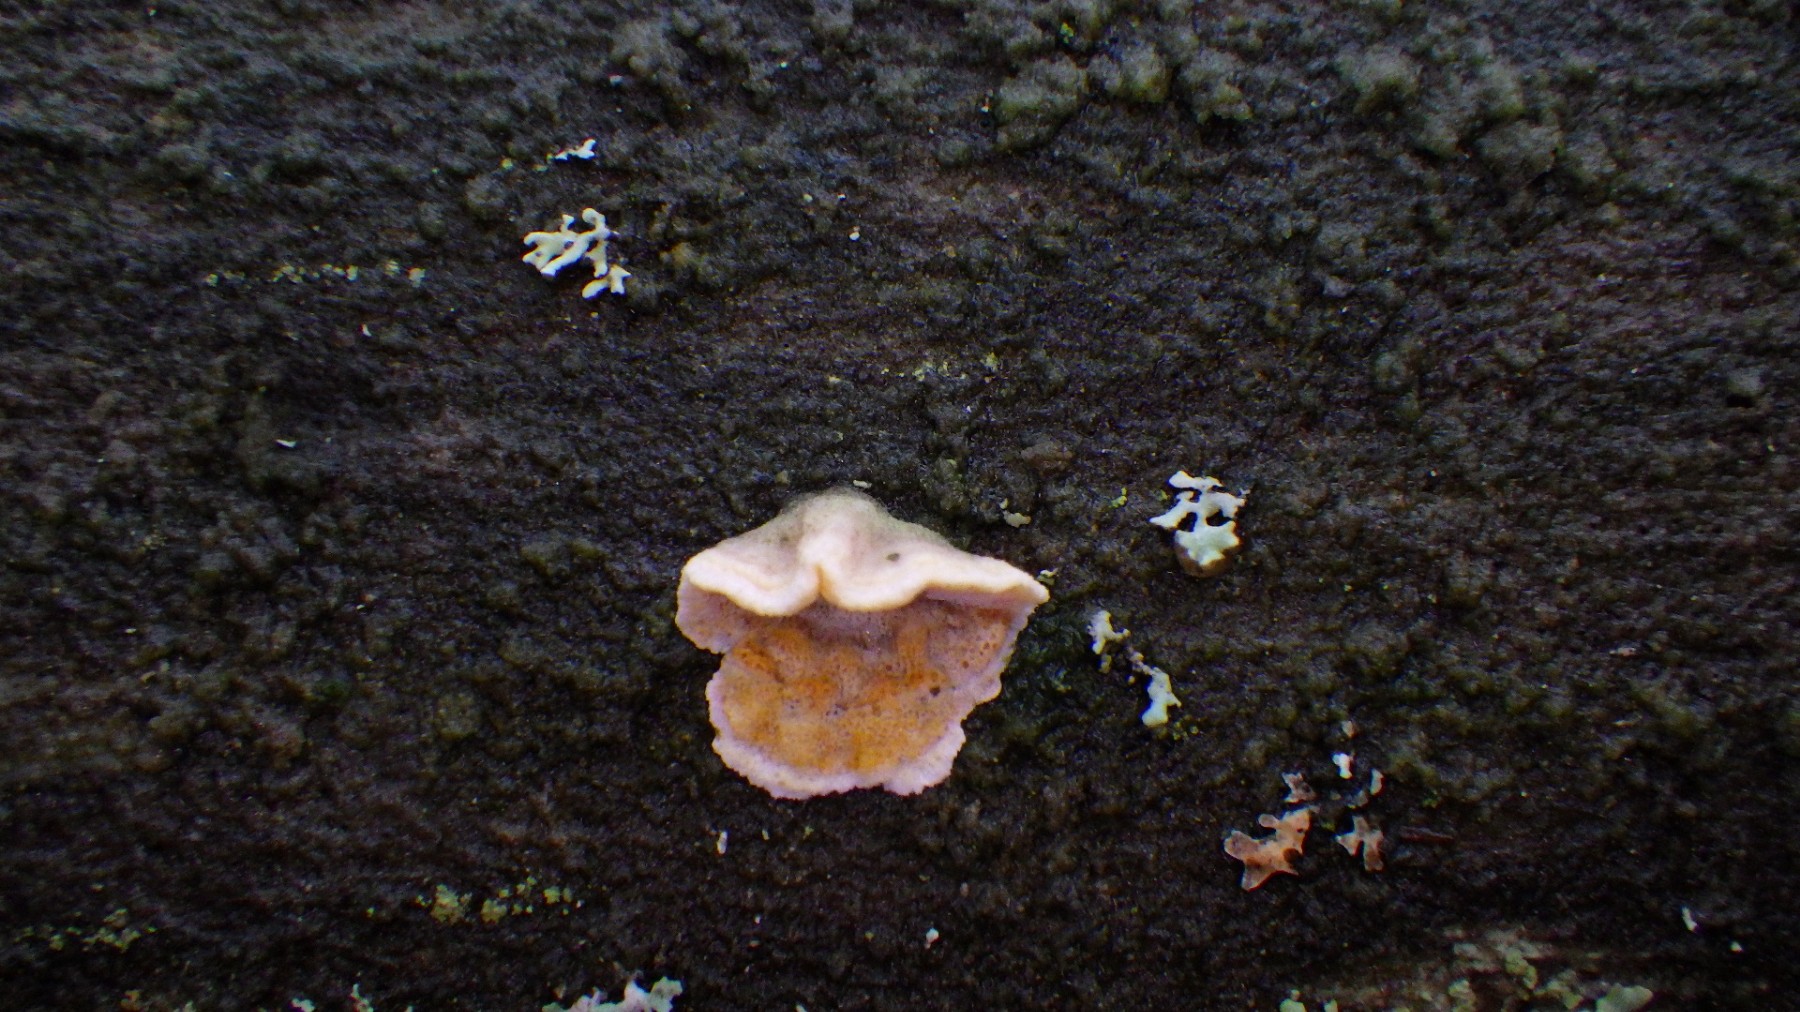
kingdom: Fungi
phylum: Basidiomycota
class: Agaricomycetes
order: Polyporales
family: Incrustoporiaceae
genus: Skeletocutis
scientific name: Skeletocutis amorpha
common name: orange krystalporesvamp
